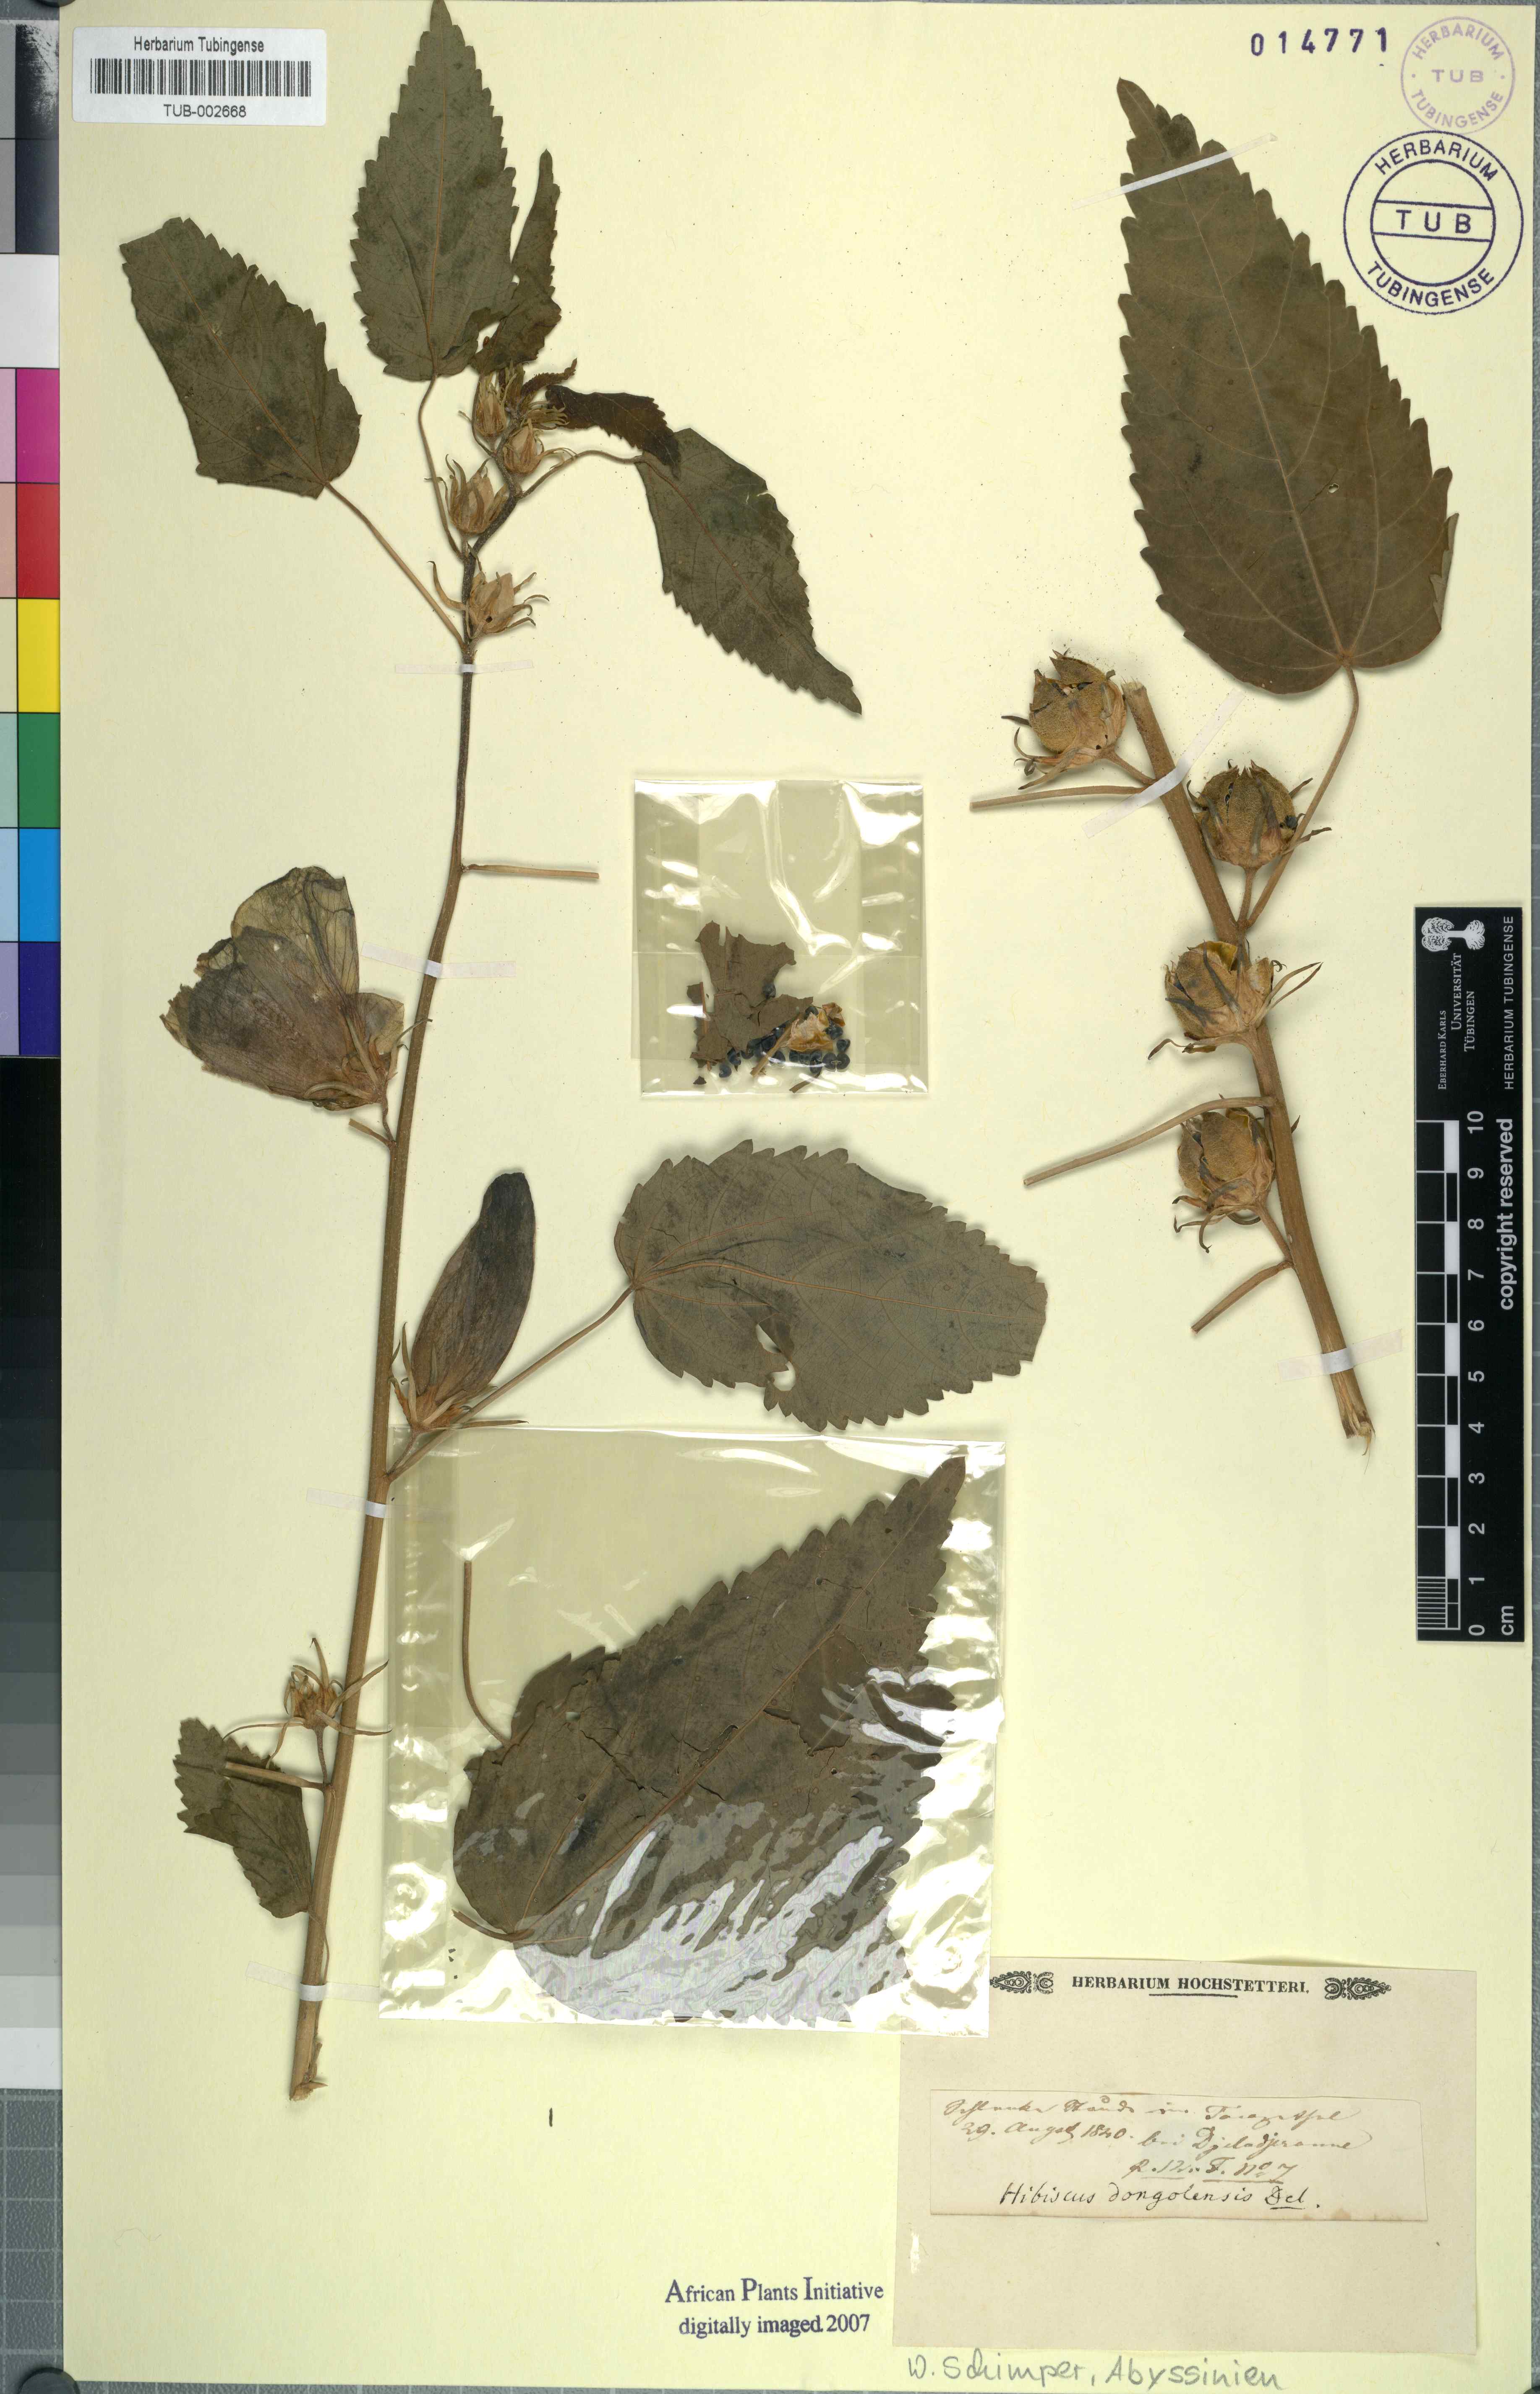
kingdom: Plantae
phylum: Tracheophyta
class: Magnoliopsida
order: Malvales
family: Malvaceae
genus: Hibiscus
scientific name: Hibiscus lunariifolius
